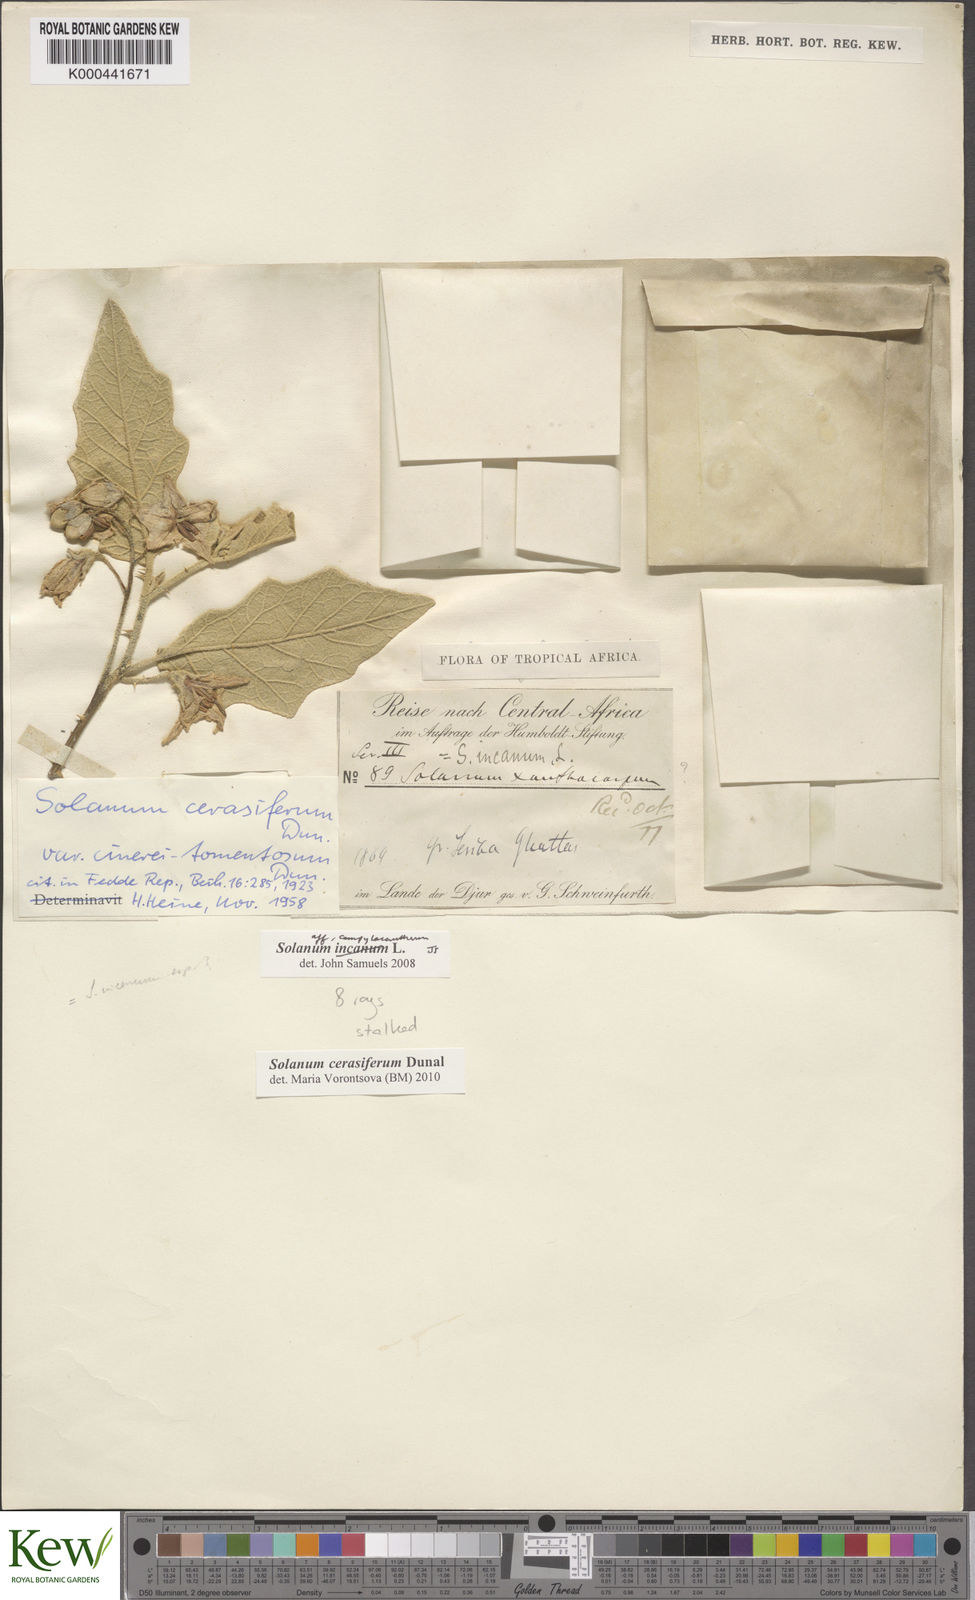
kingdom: Plantae
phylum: Tracheophyta
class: Magnoliopsida
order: Solanales
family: Solanaceae
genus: Solanum
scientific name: Solanum cerasiferum
